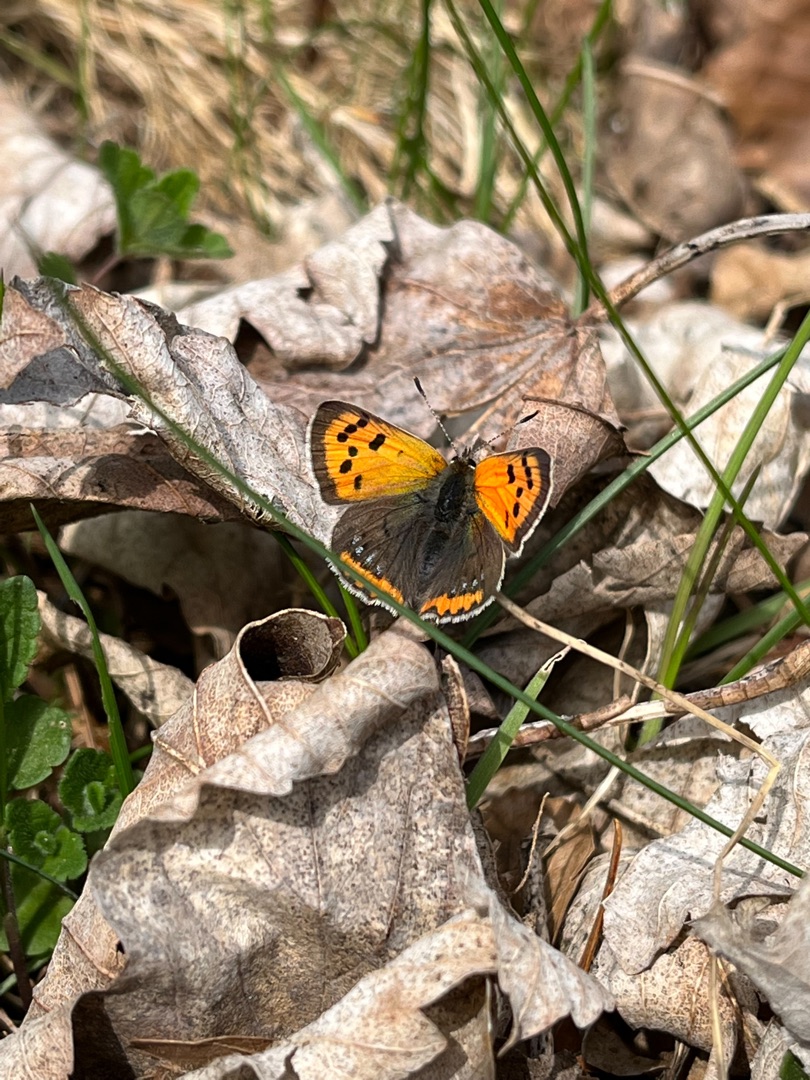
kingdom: Animalia
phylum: Arthropoda
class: Insecta
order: Lepidoptera
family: Lycaenidae
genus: Lycaena
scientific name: Lycaena phlaeas
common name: Lille ildfugl
